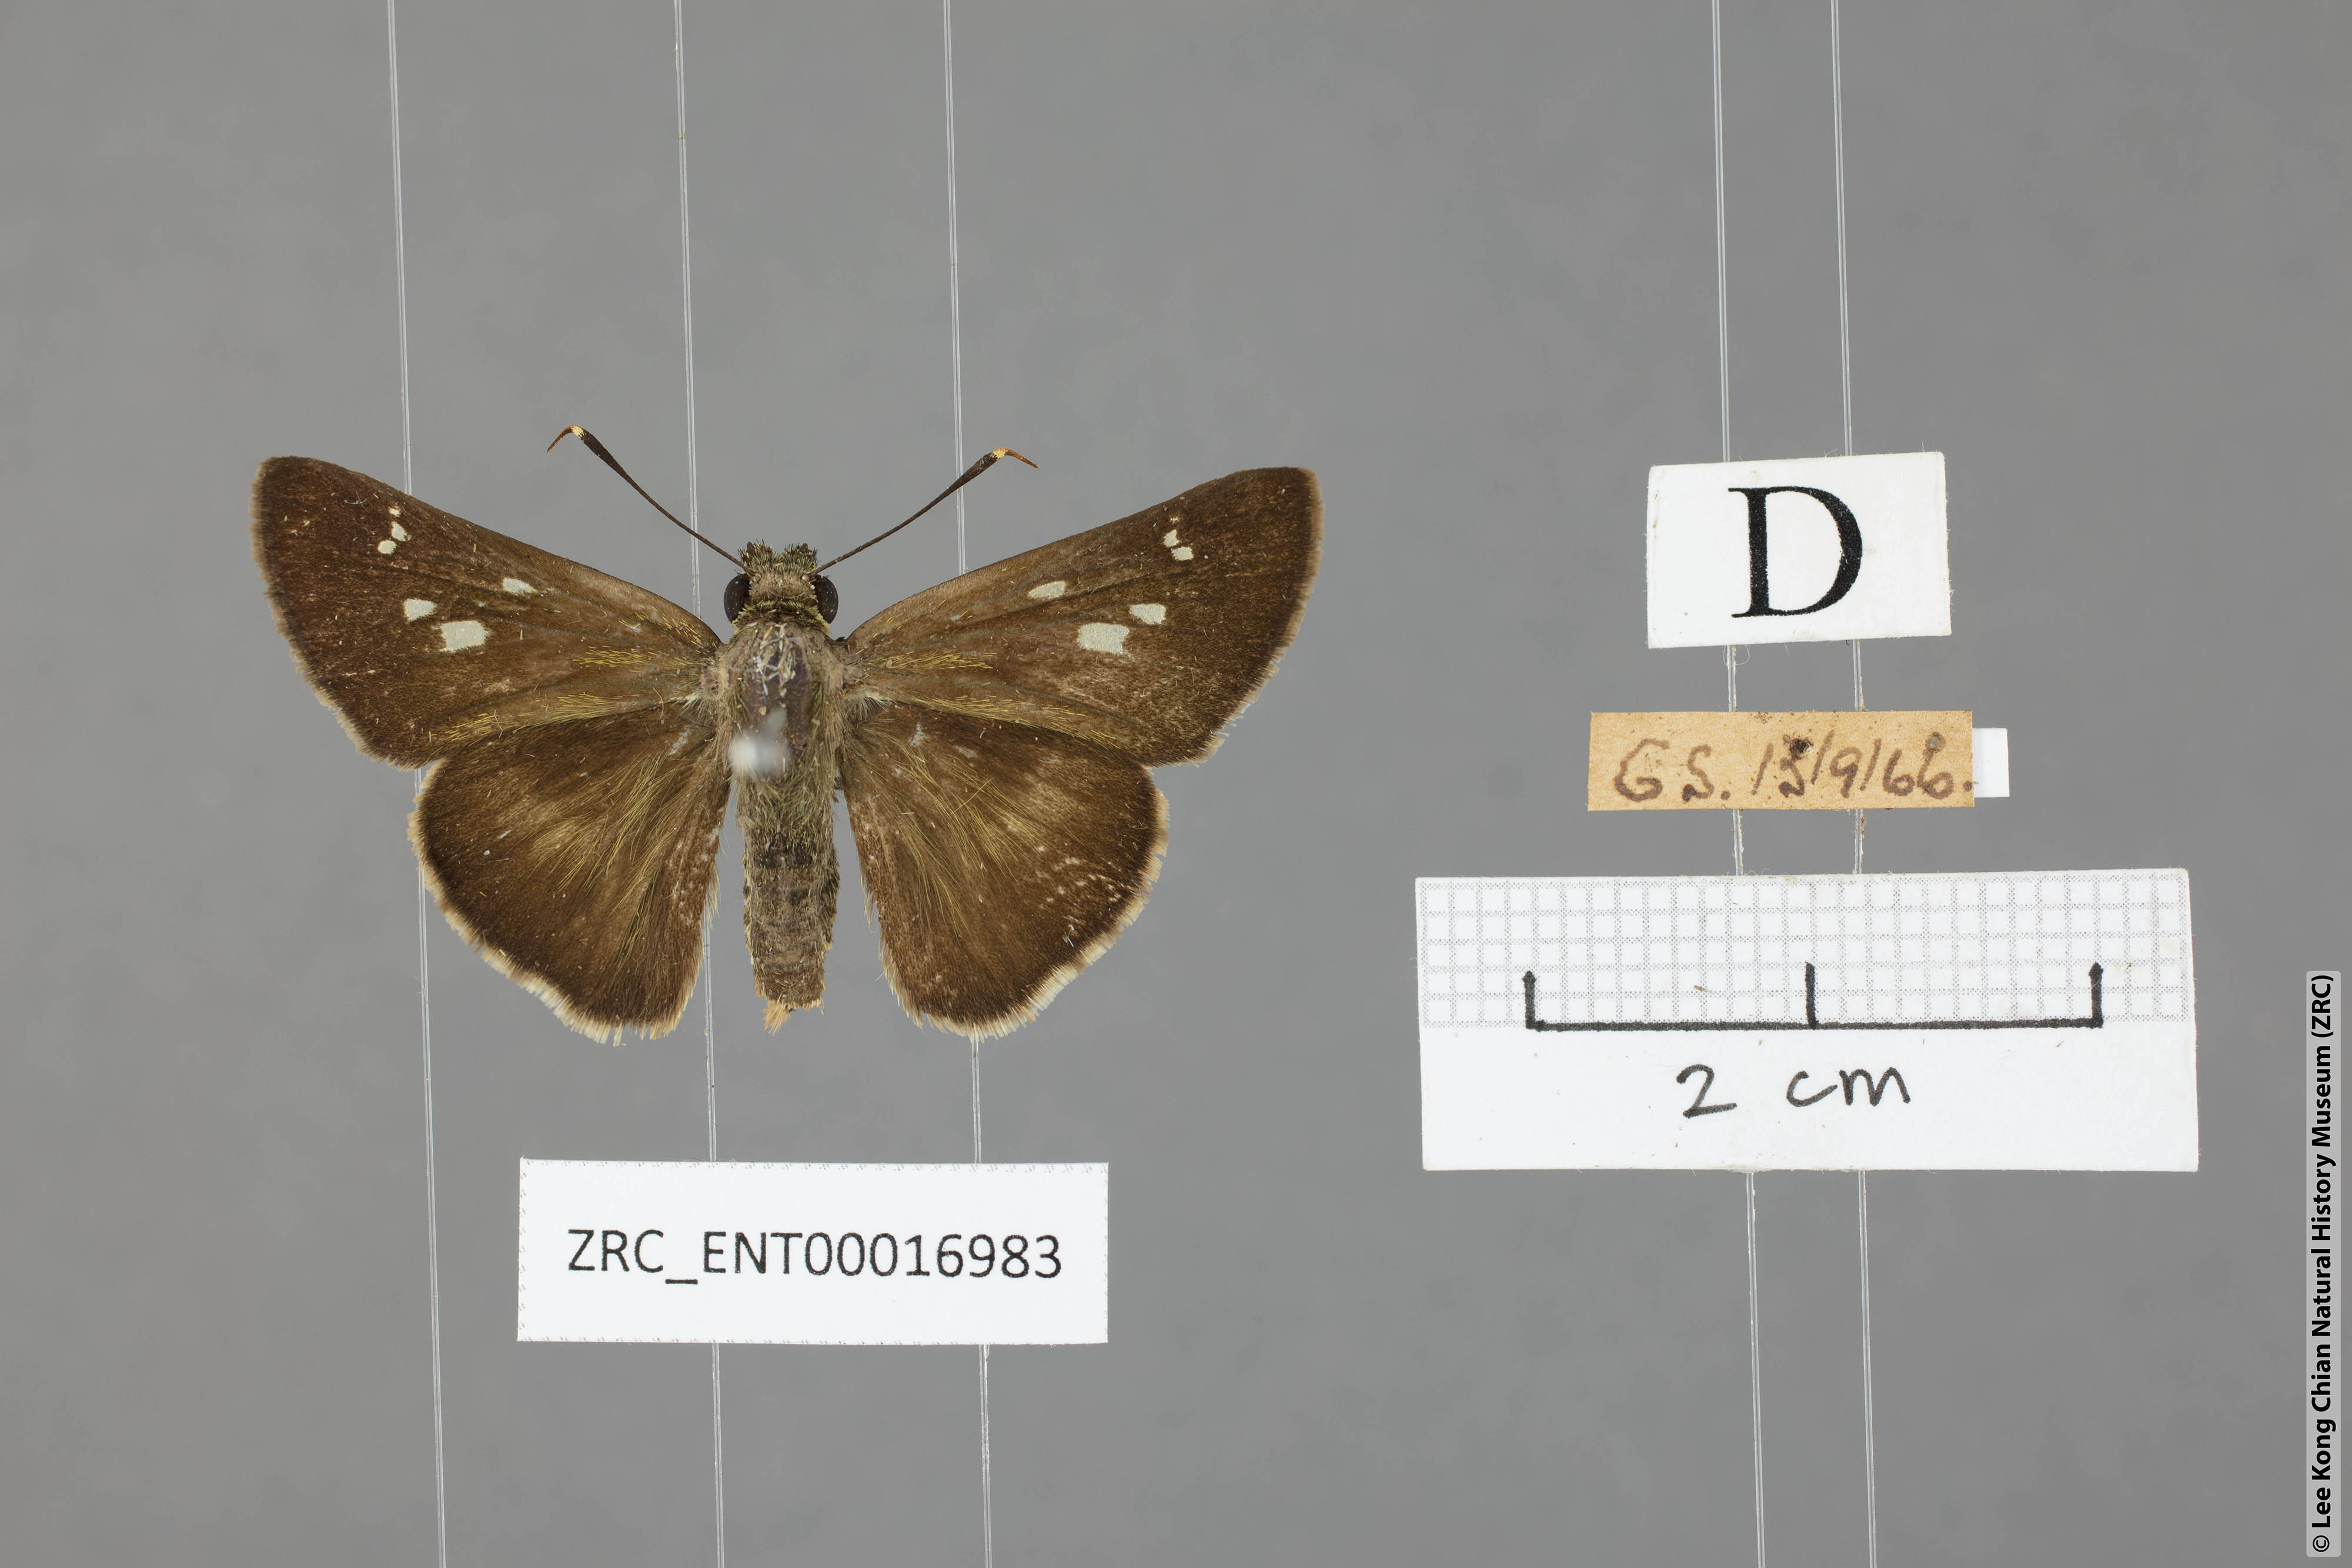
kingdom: Animalia
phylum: Arthropoda
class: Insecta
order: Lepidoptera
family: Hesperiidae
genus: Halpe
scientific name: Halpe elana
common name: Narrow-banded ace
